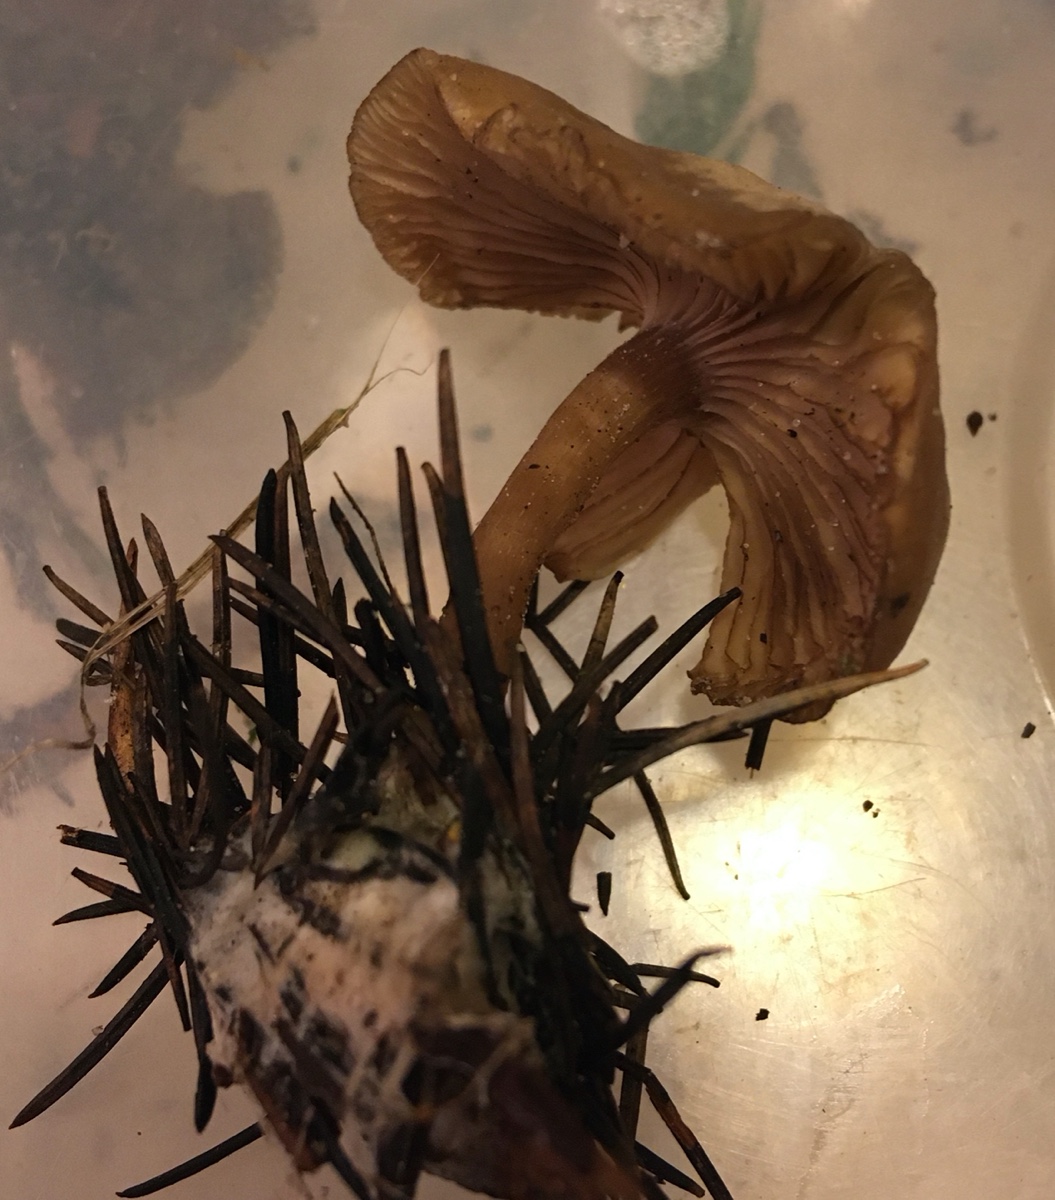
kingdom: Fungi
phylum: Basidiomycota
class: Agaricomycetes
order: Agaricales
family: Tricholomataceae
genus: Clitocybe
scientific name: Clitocybe fragrans
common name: vellugtende tragthat
